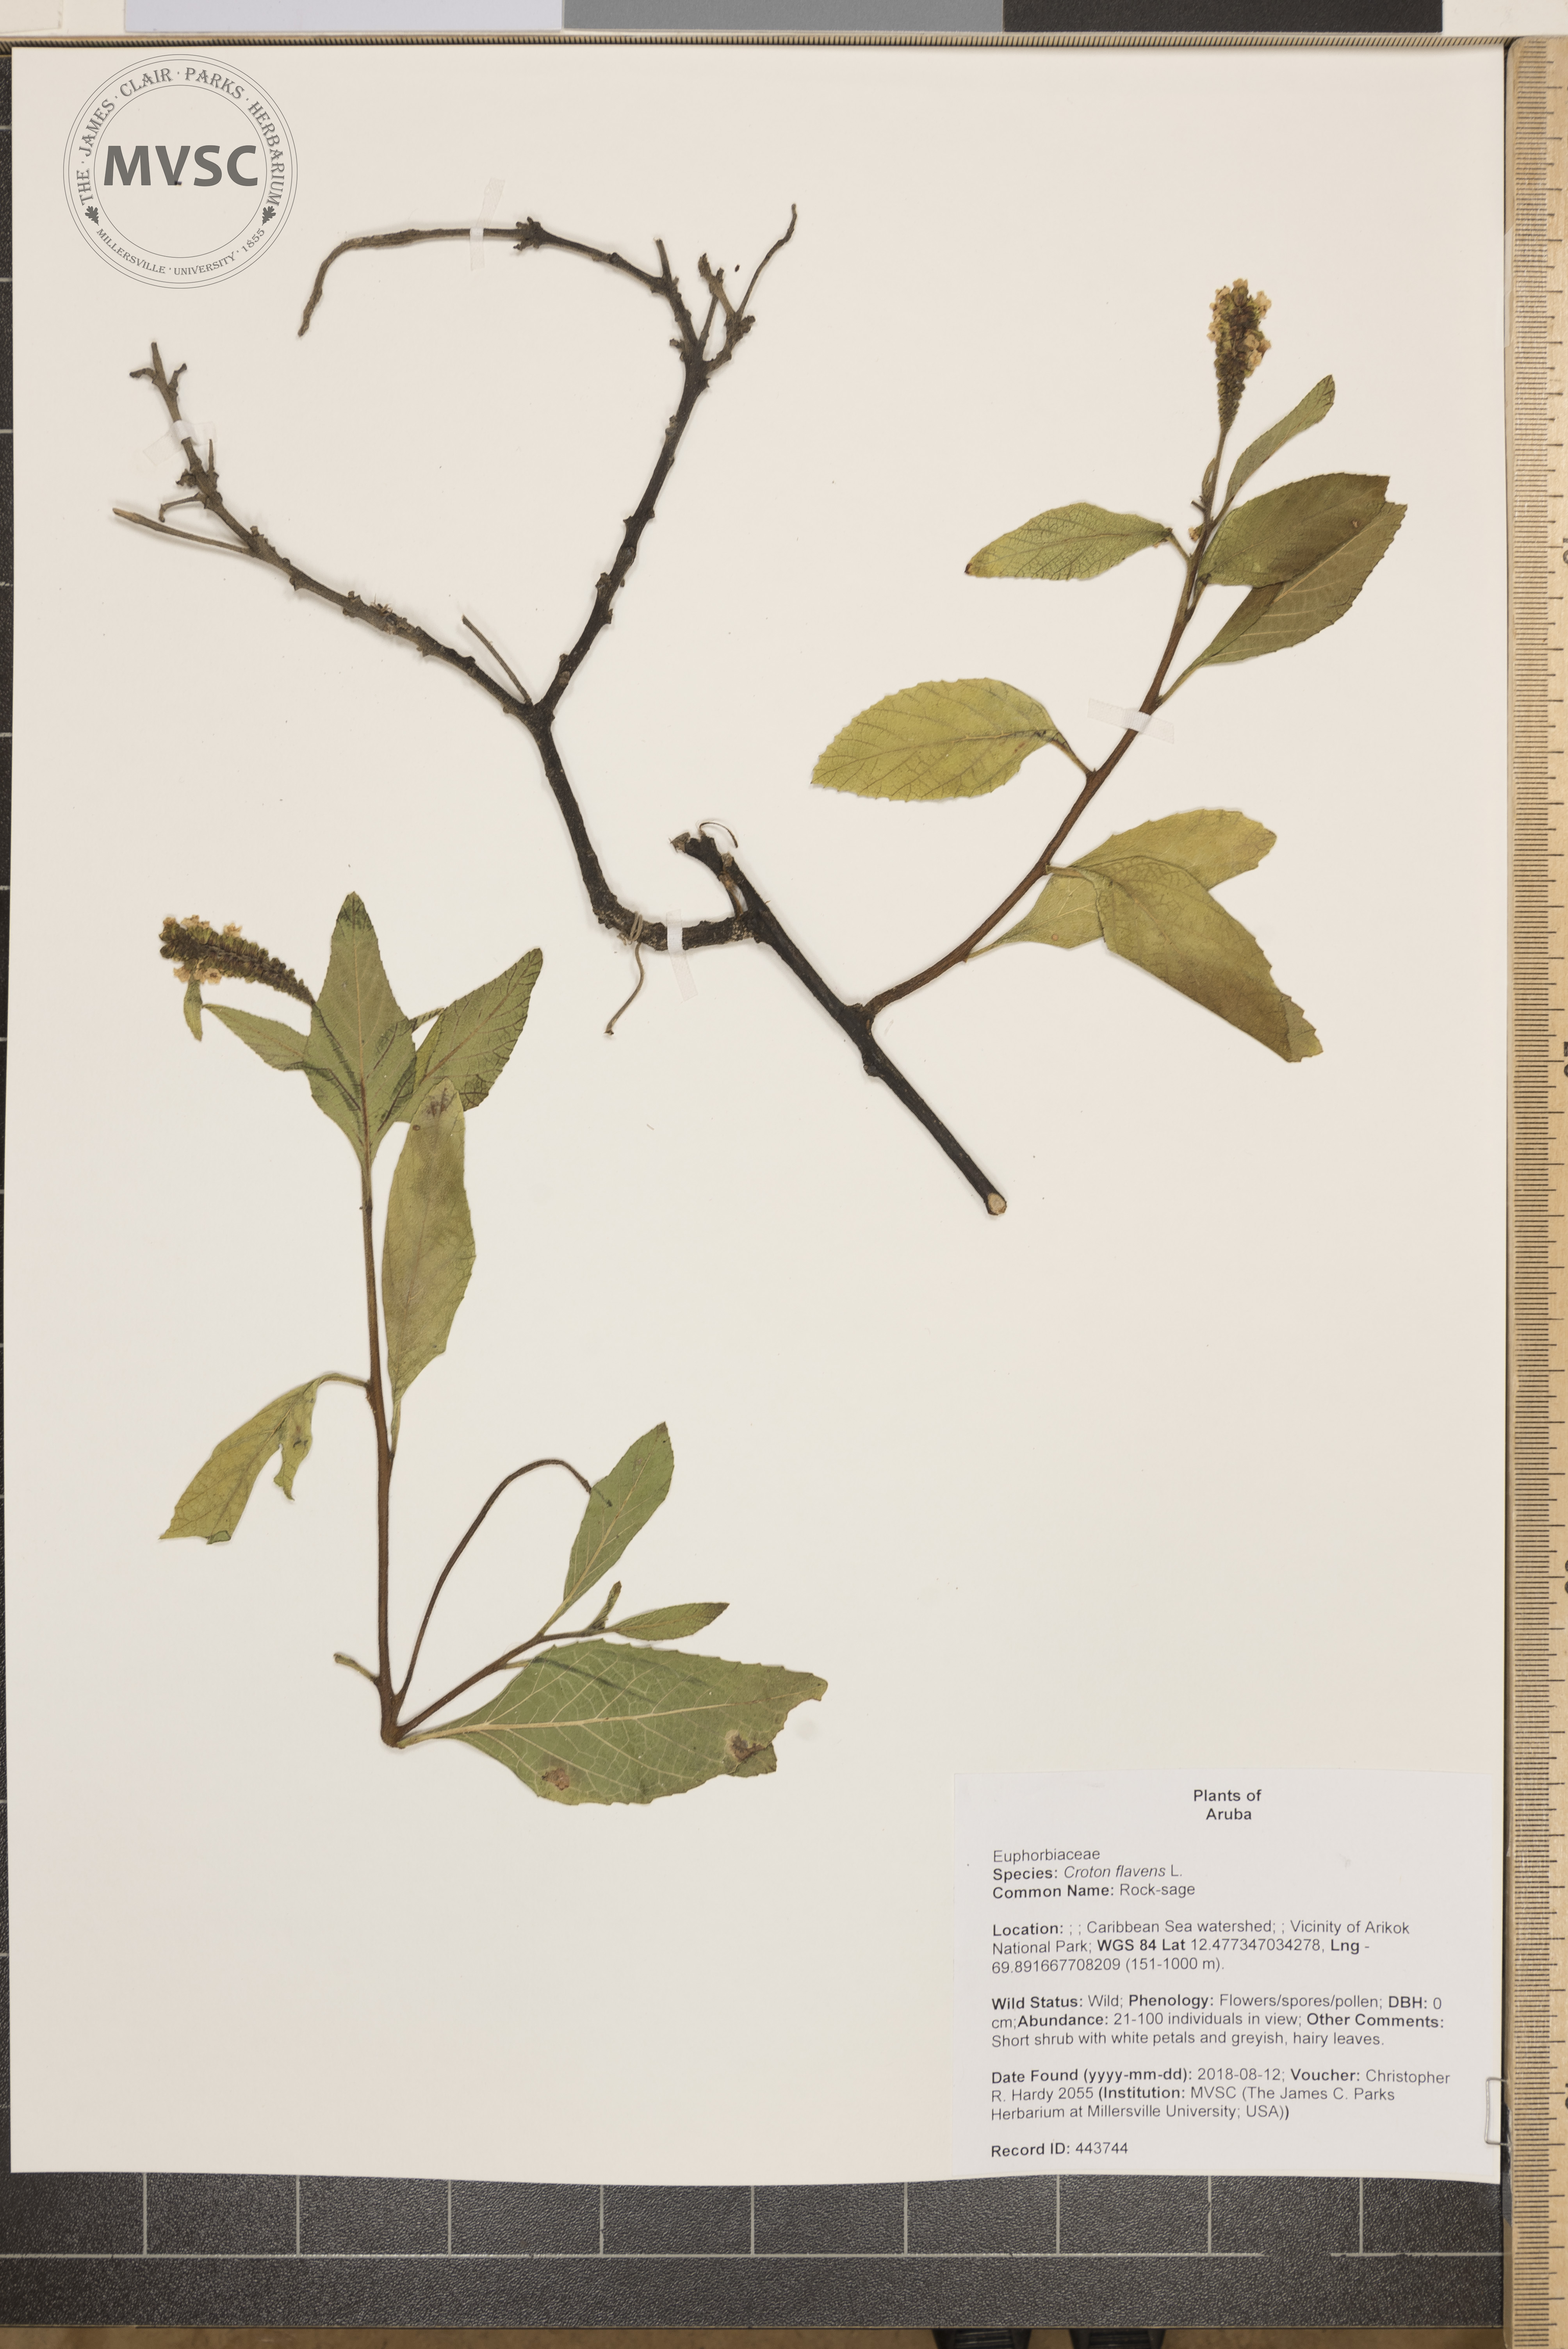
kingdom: Plantae
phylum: Tracheophyta
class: Magnoliopsida
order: Malpighiales
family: Euphorbiaceae
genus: Croton
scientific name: Croton flavens
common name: Rock-sage
